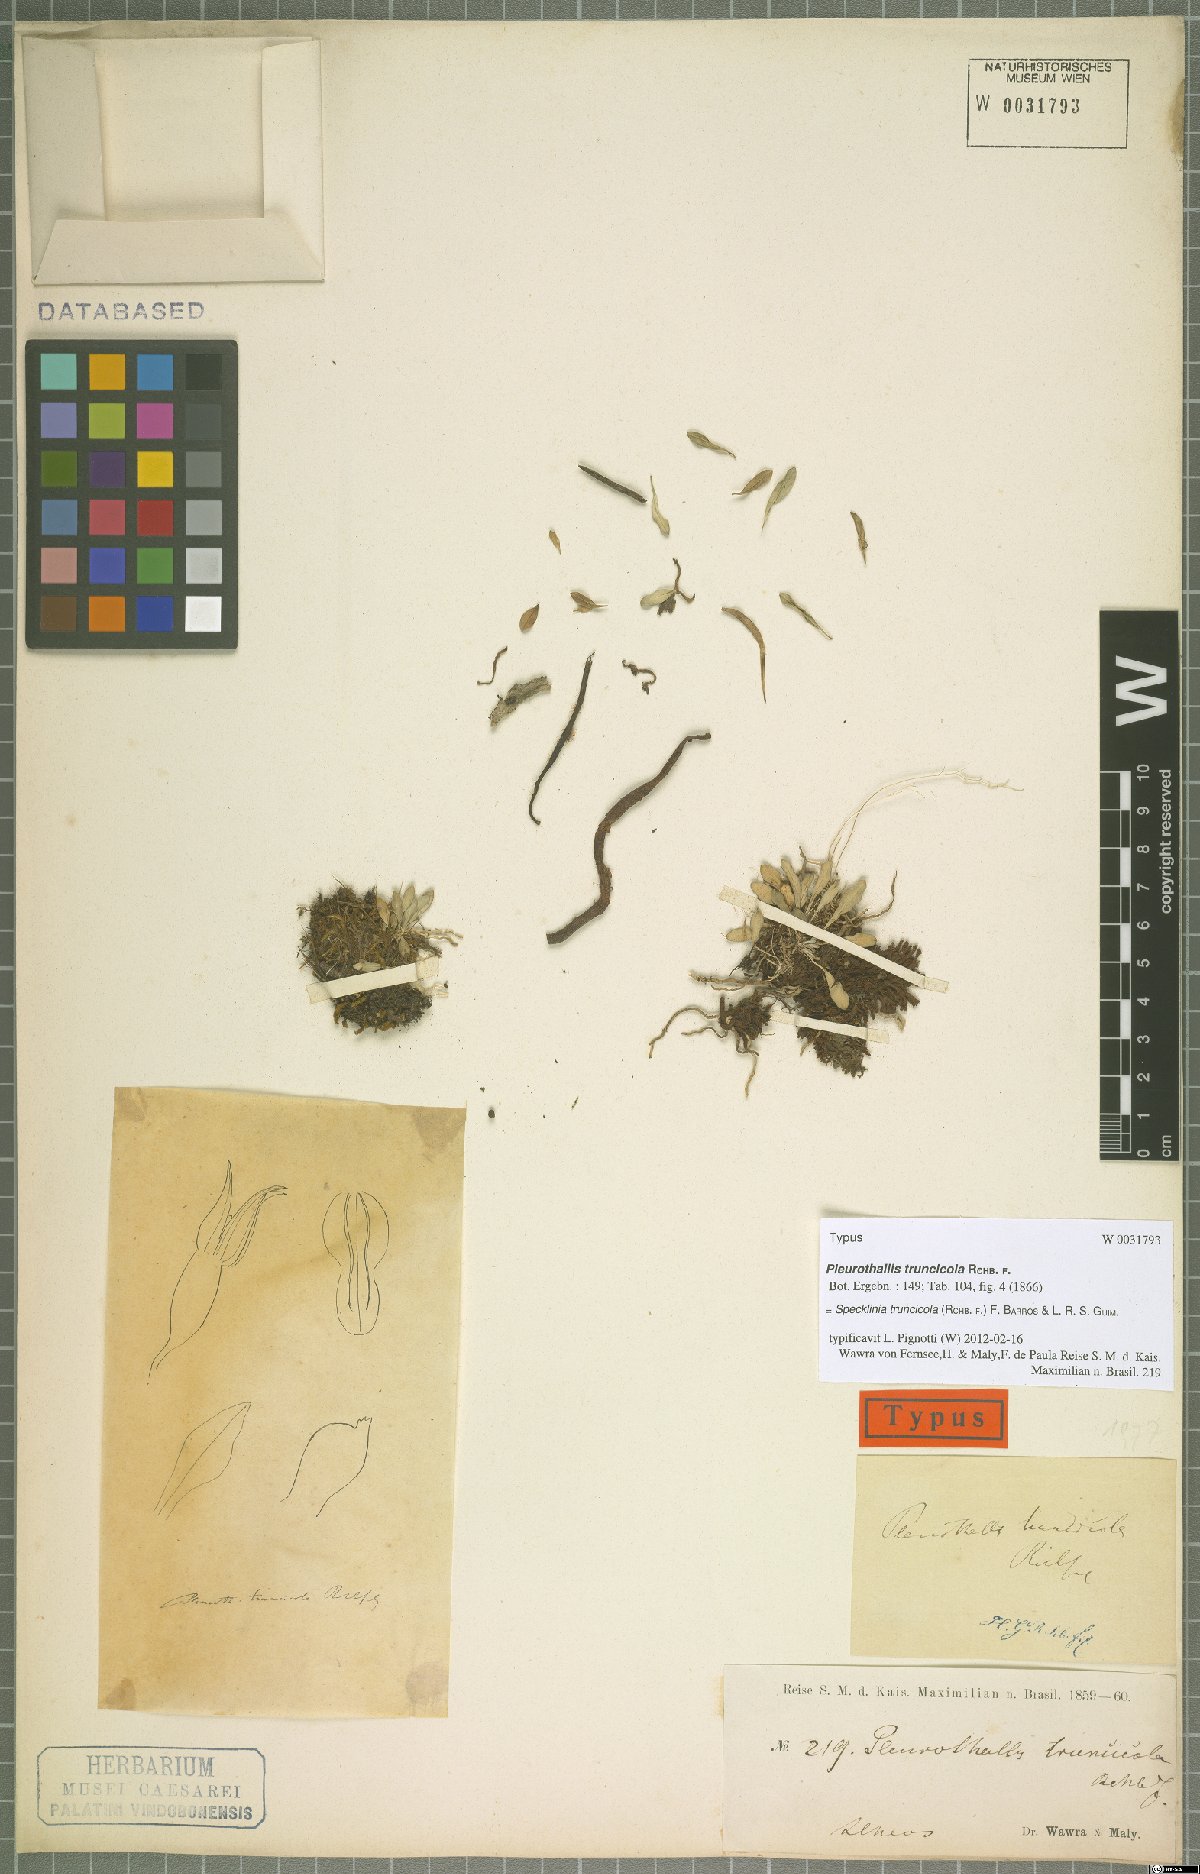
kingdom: Plantae
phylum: Tracheophyta
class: Liliopsida
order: Asparagales
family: Orchidaceae
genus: Pabstiella
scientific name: Pabstiella truncicola
